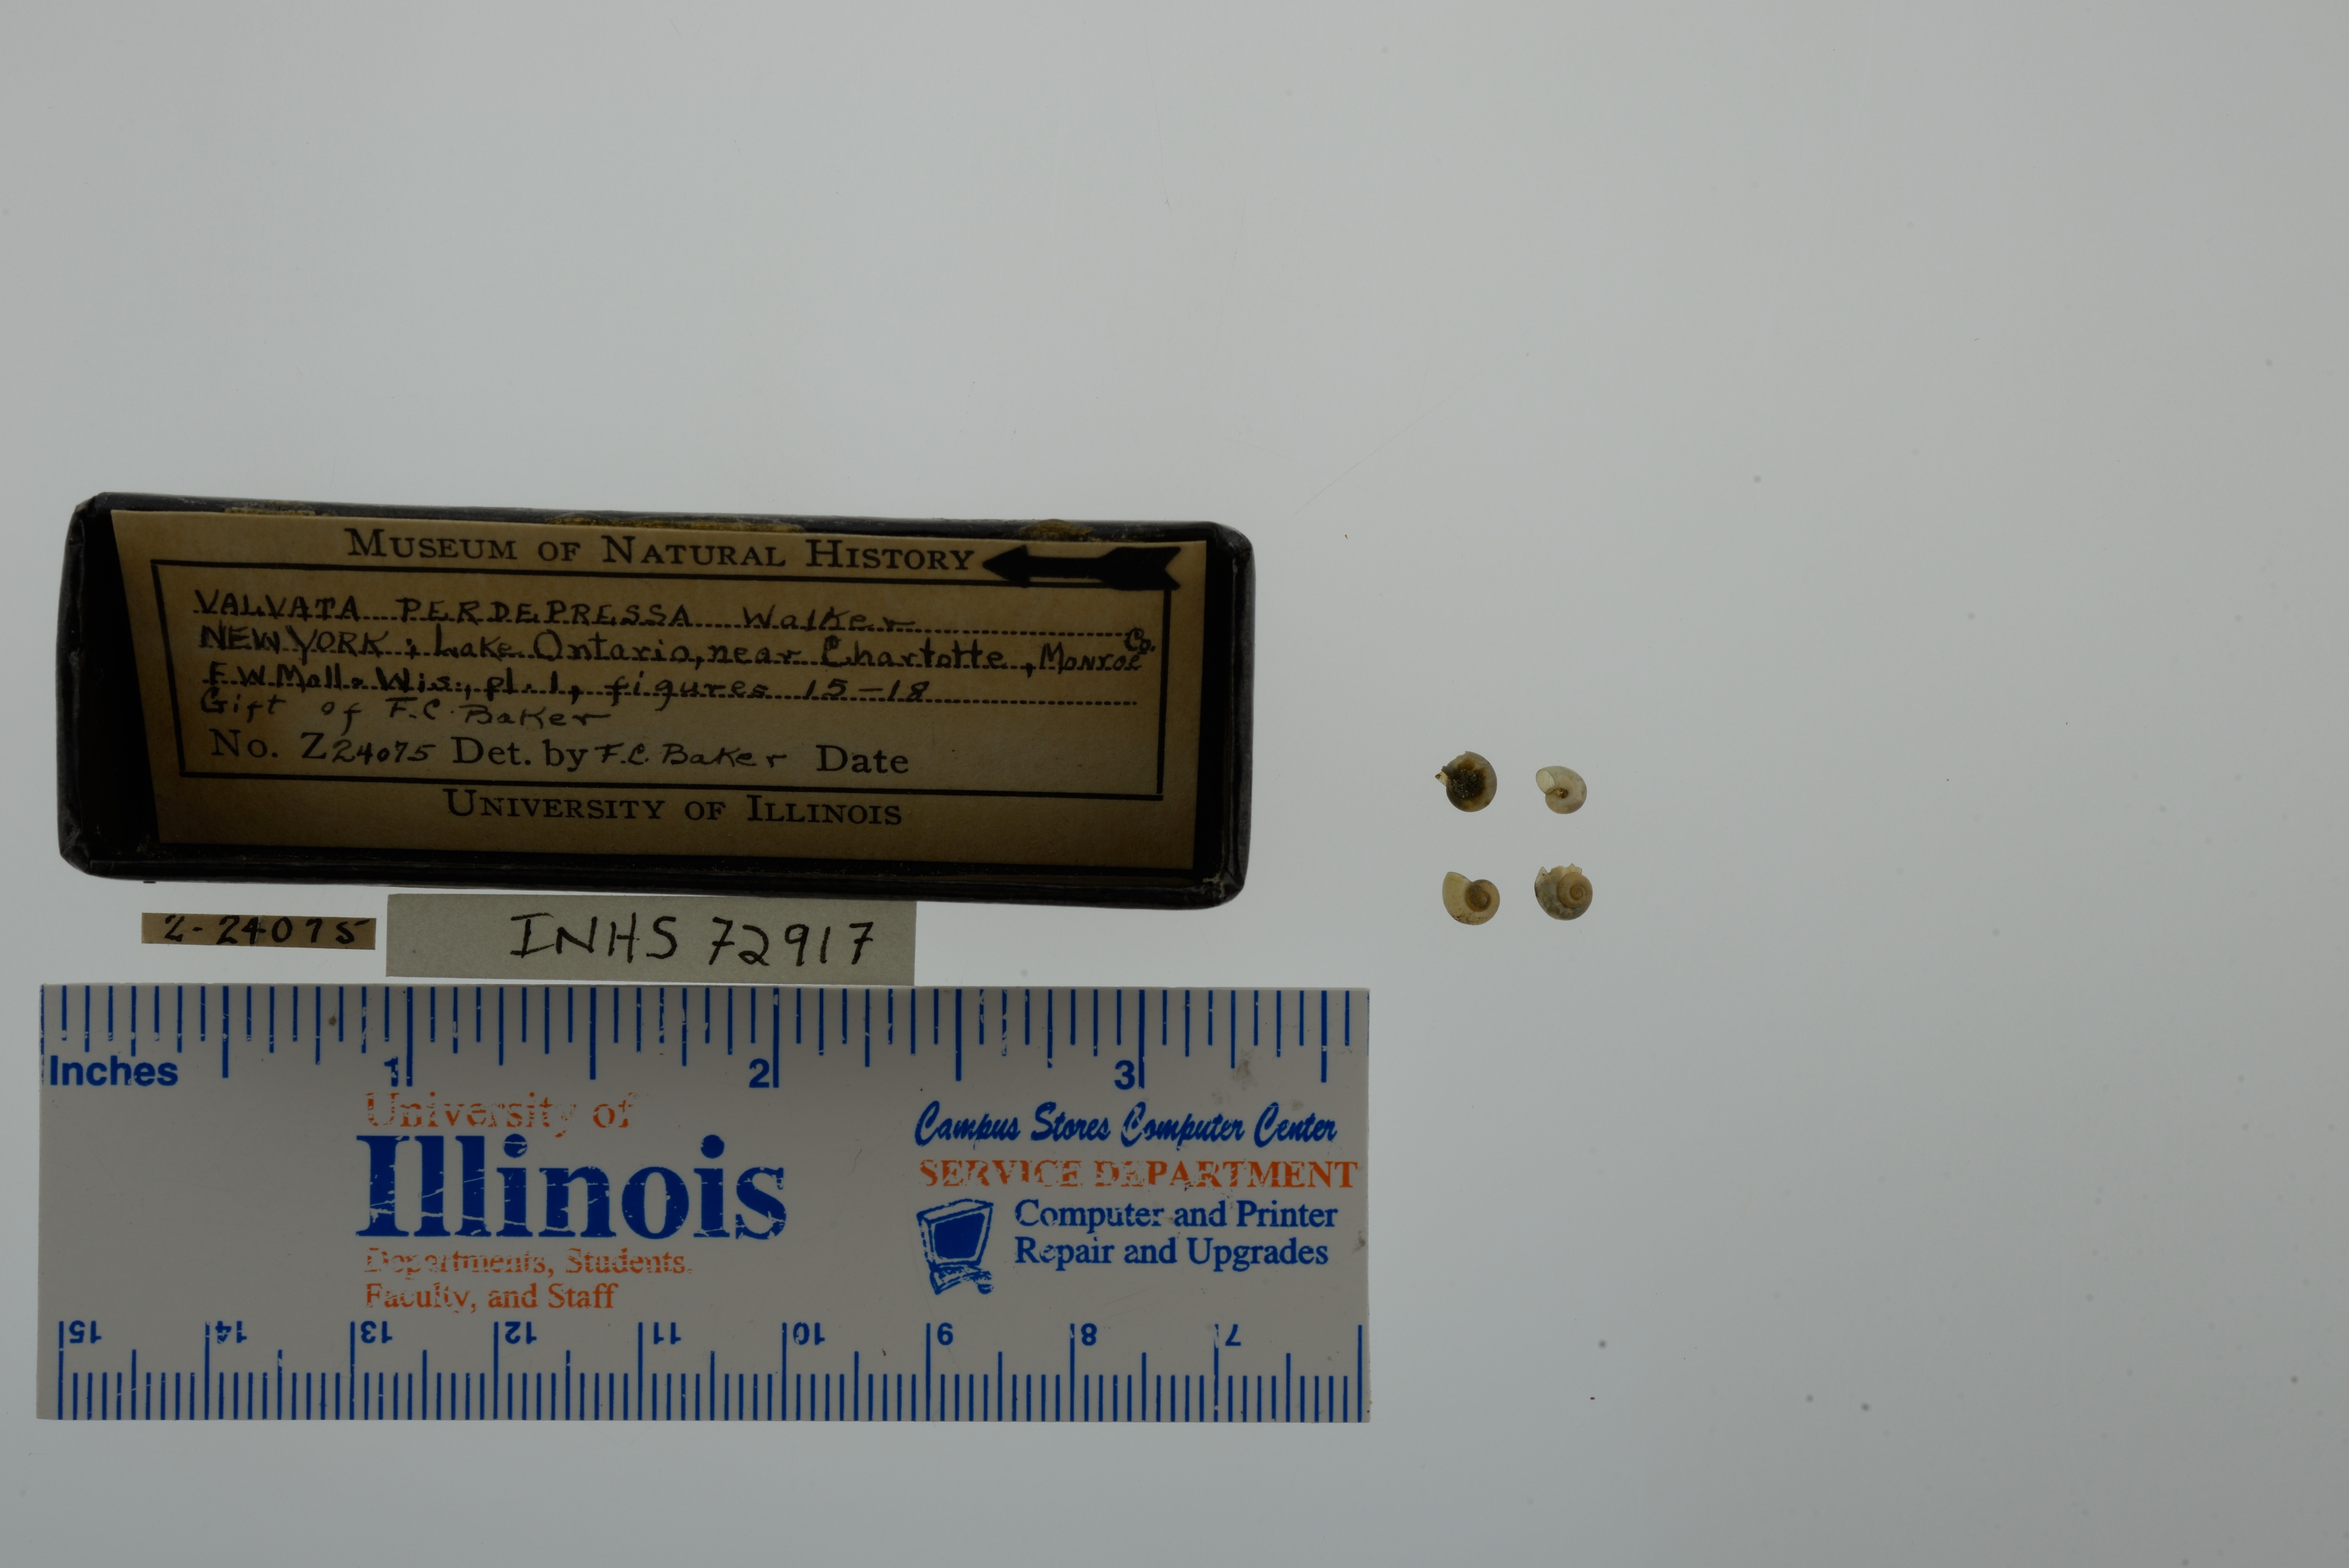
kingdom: Animalia
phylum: Mollusca
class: Gastropoda
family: Valvatidae
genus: Valvata
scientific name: Valvata perdepressa
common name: Purplecap valvata
